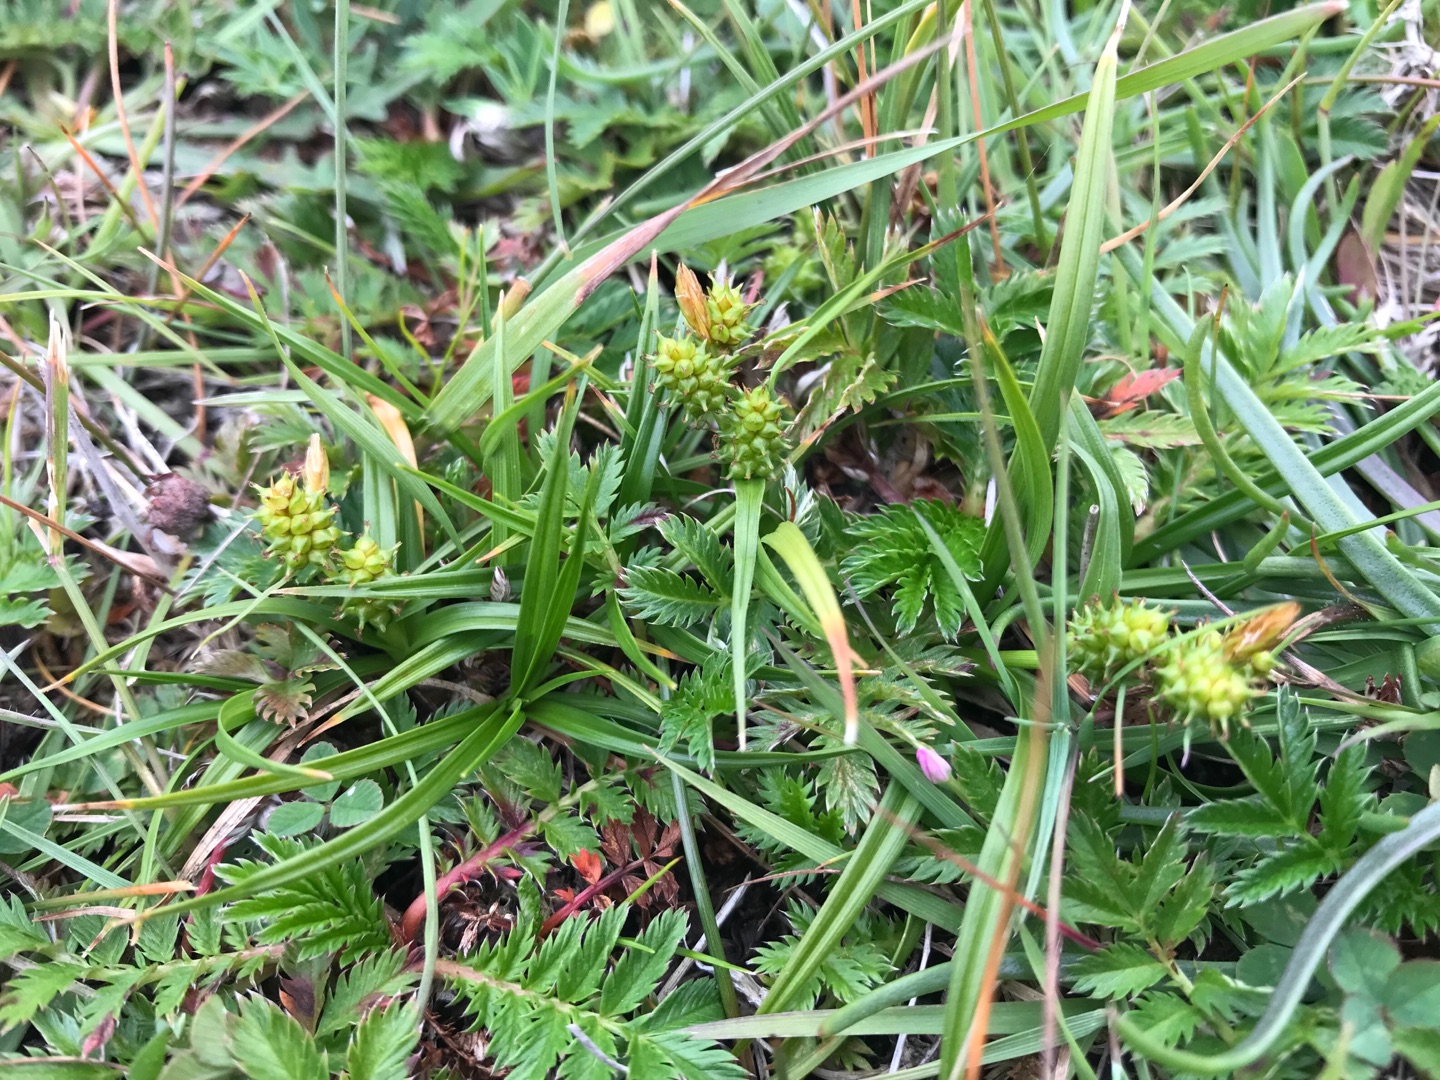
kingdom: Plantae
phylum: Tracheophyta
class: Liliopsida
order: Poales
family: Cyperaceae
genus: Carex
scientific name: Carex oederi
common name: Høst-star
